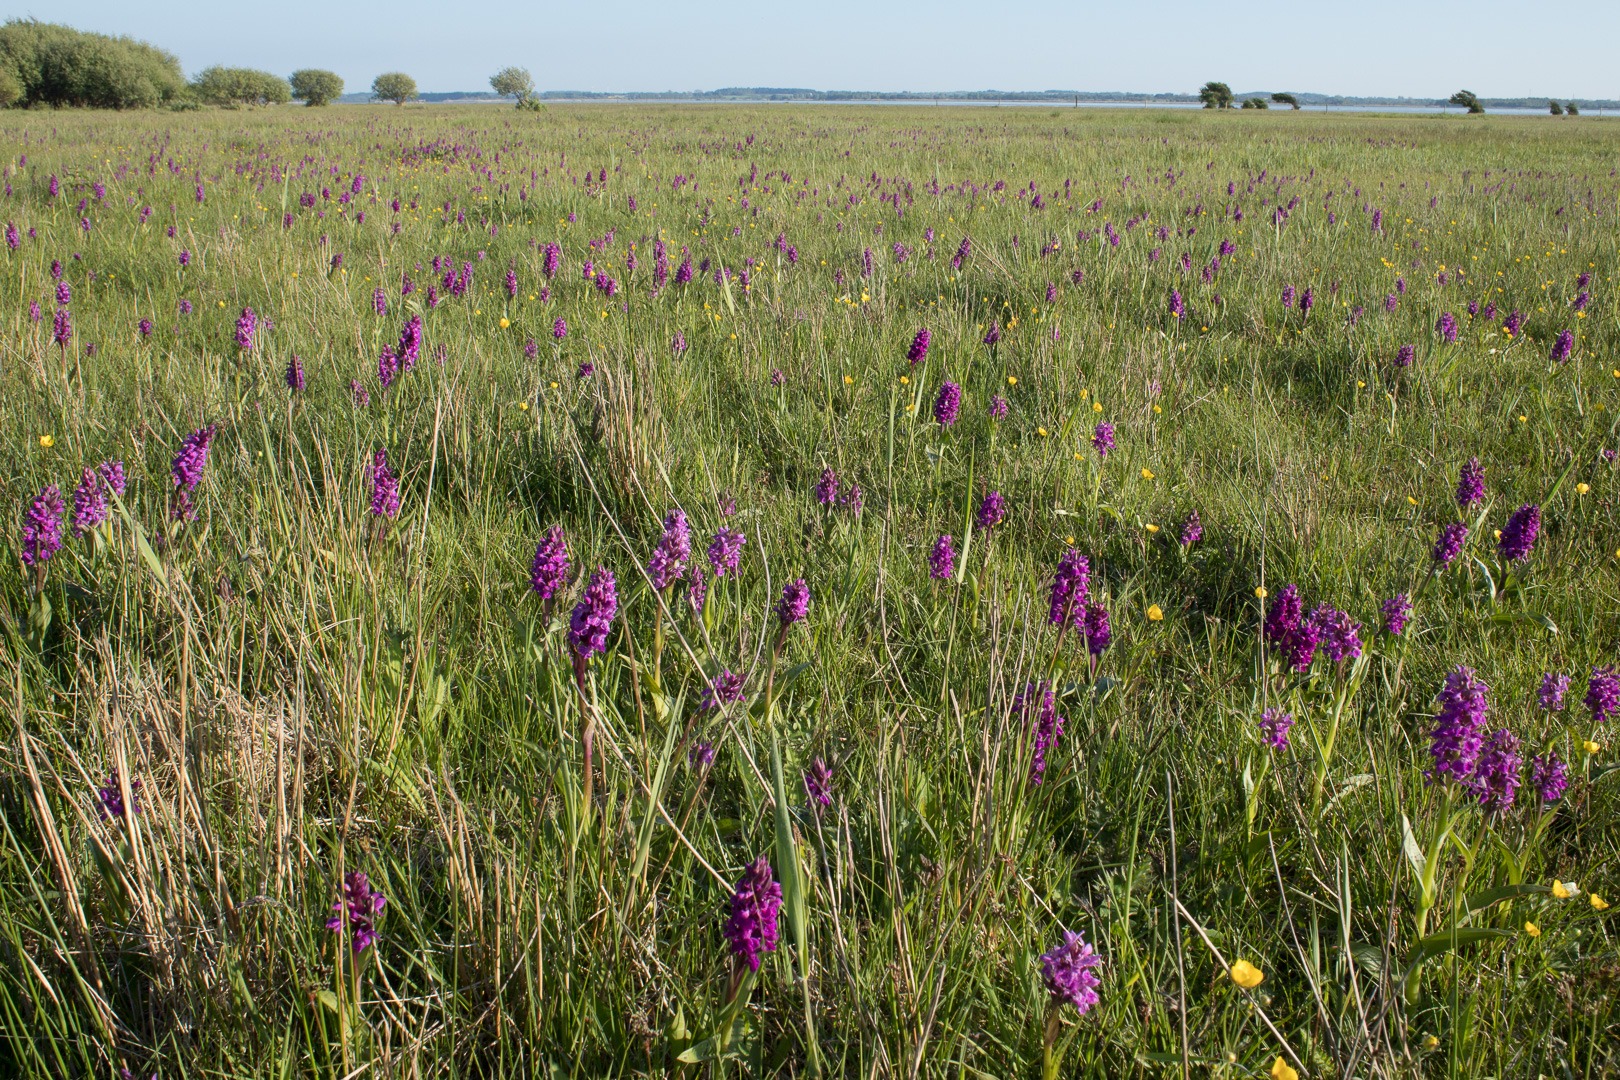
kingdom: Plantae
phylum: Tracheophyta
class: Liliopsida
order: Asparagales
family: Orchidaceae
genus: Dactylorhiza
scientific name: Dactylorhiza majalis
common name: Maj-gøgeurt
